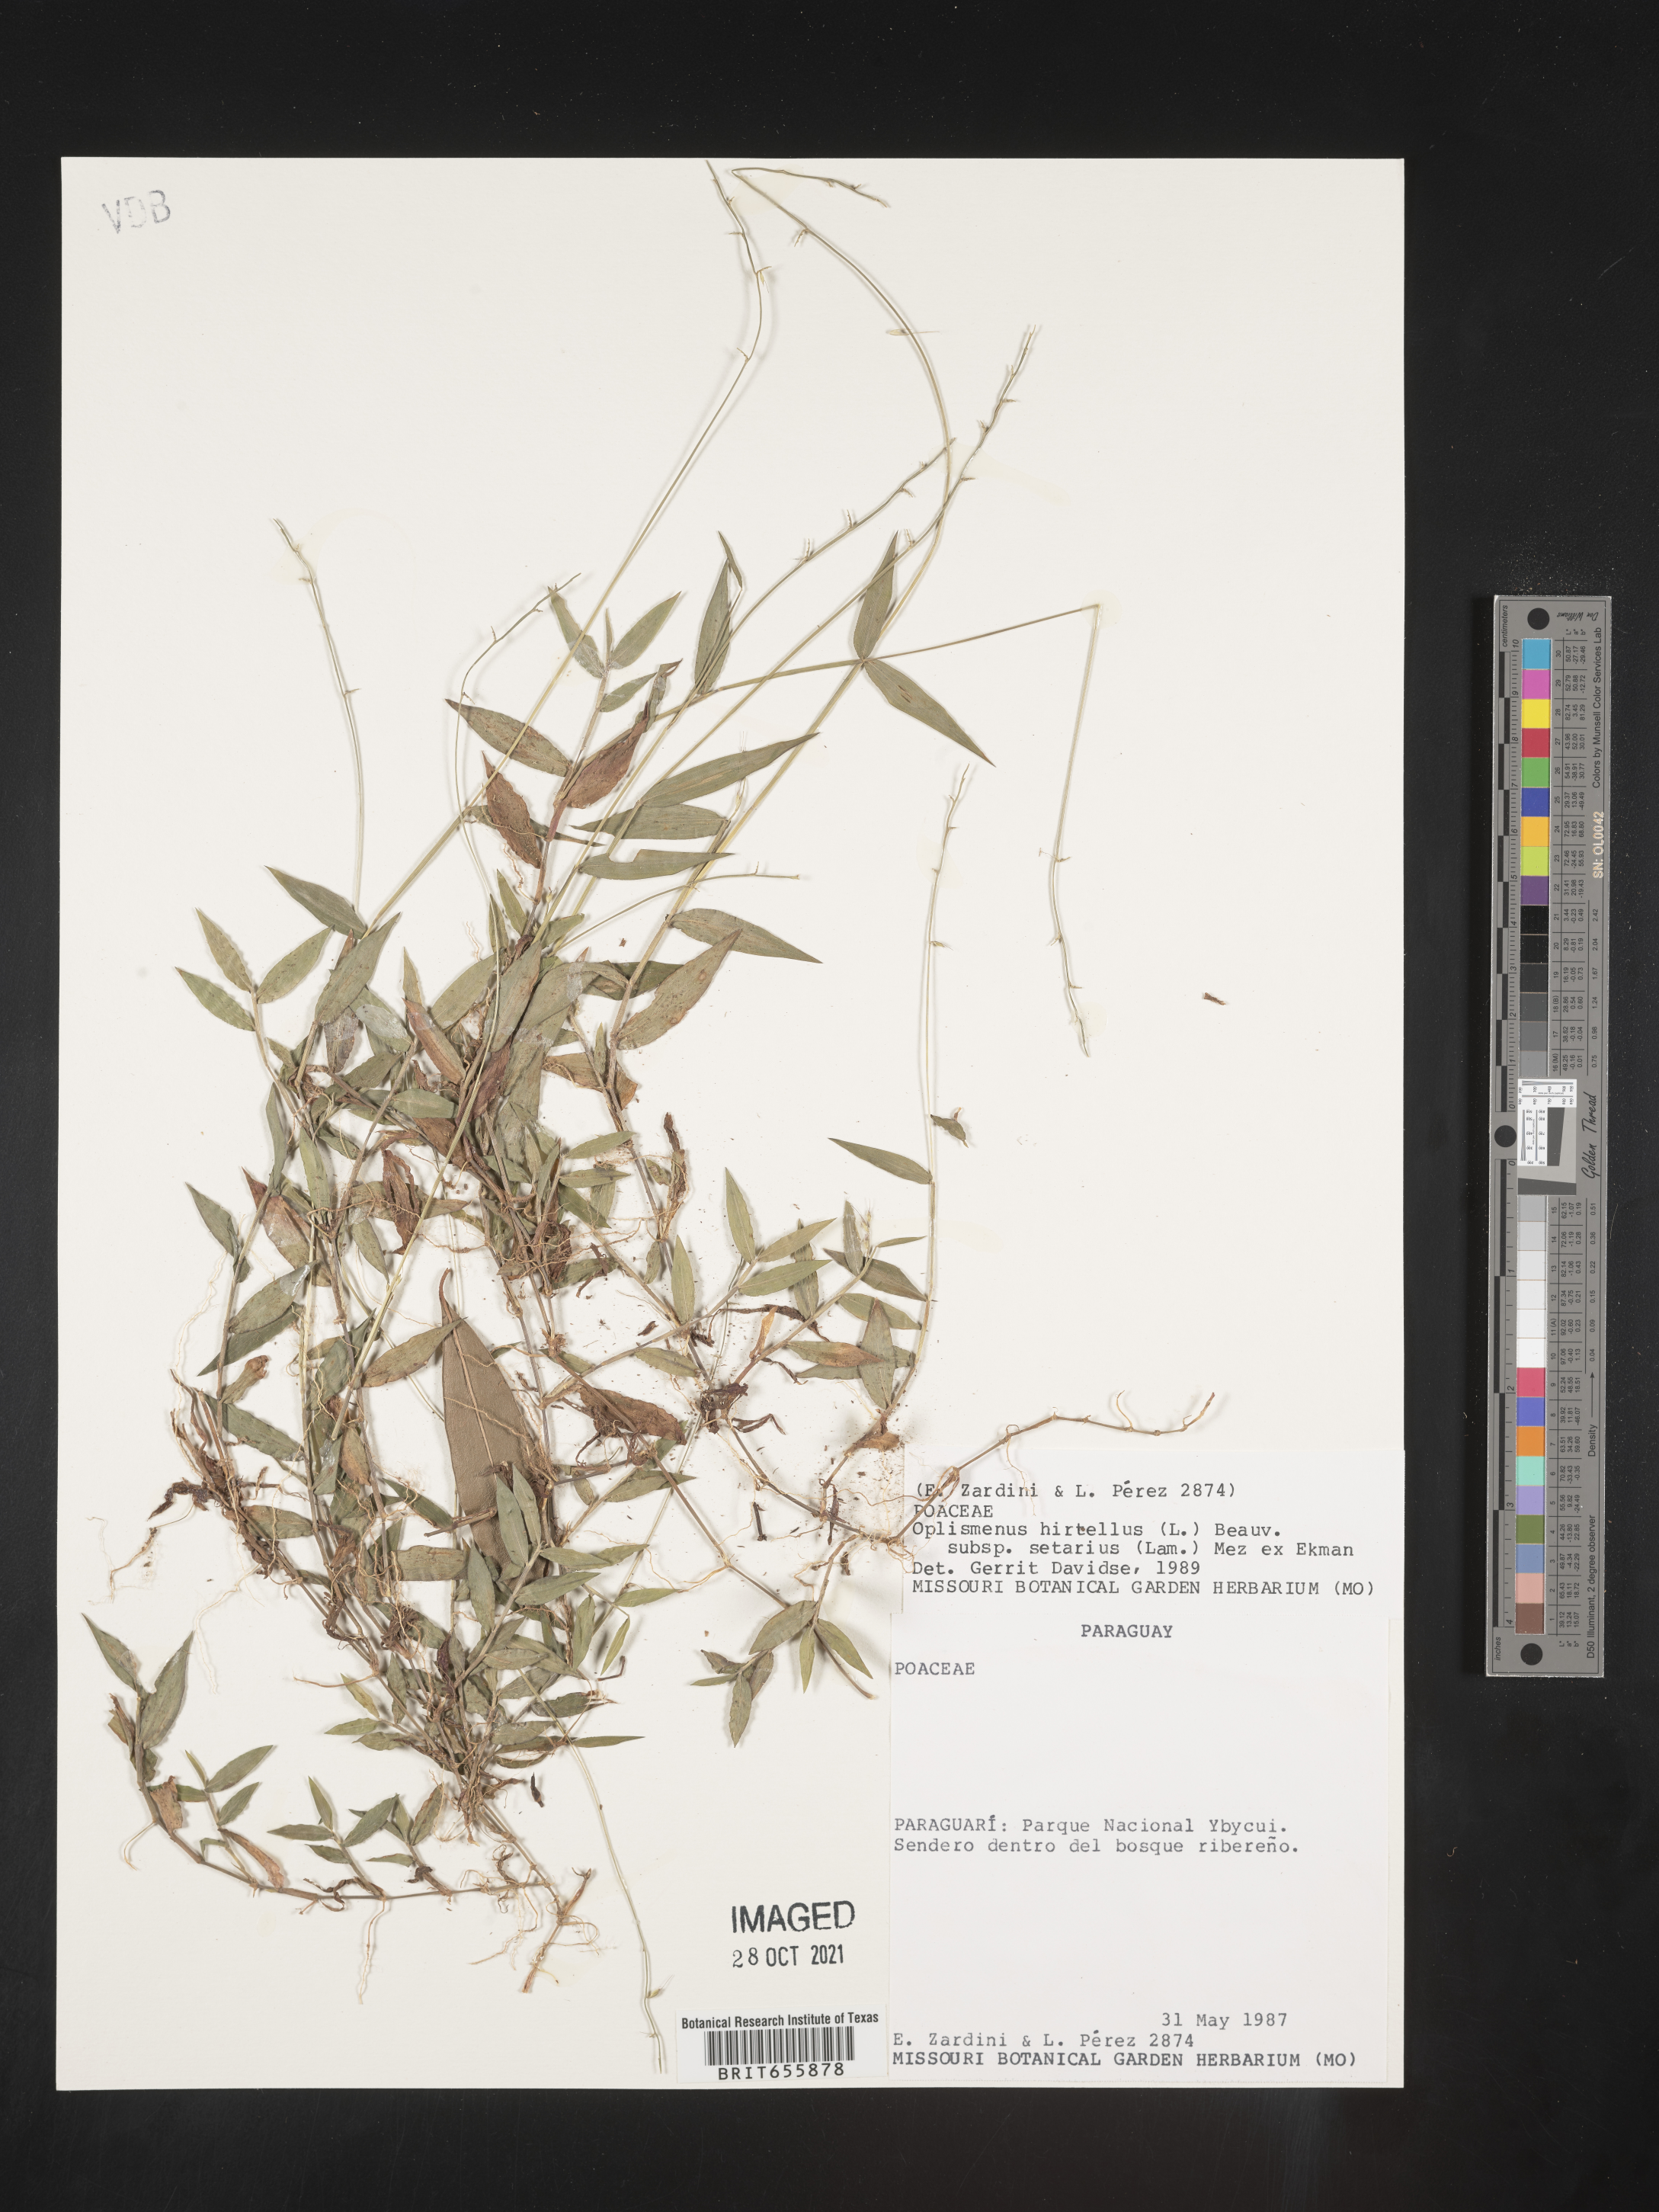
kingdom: Plantae
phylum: Tracheophyta
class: Liliopsida
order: Poales
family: Poaceae
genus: Oplismenus
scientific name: Oplismenus
